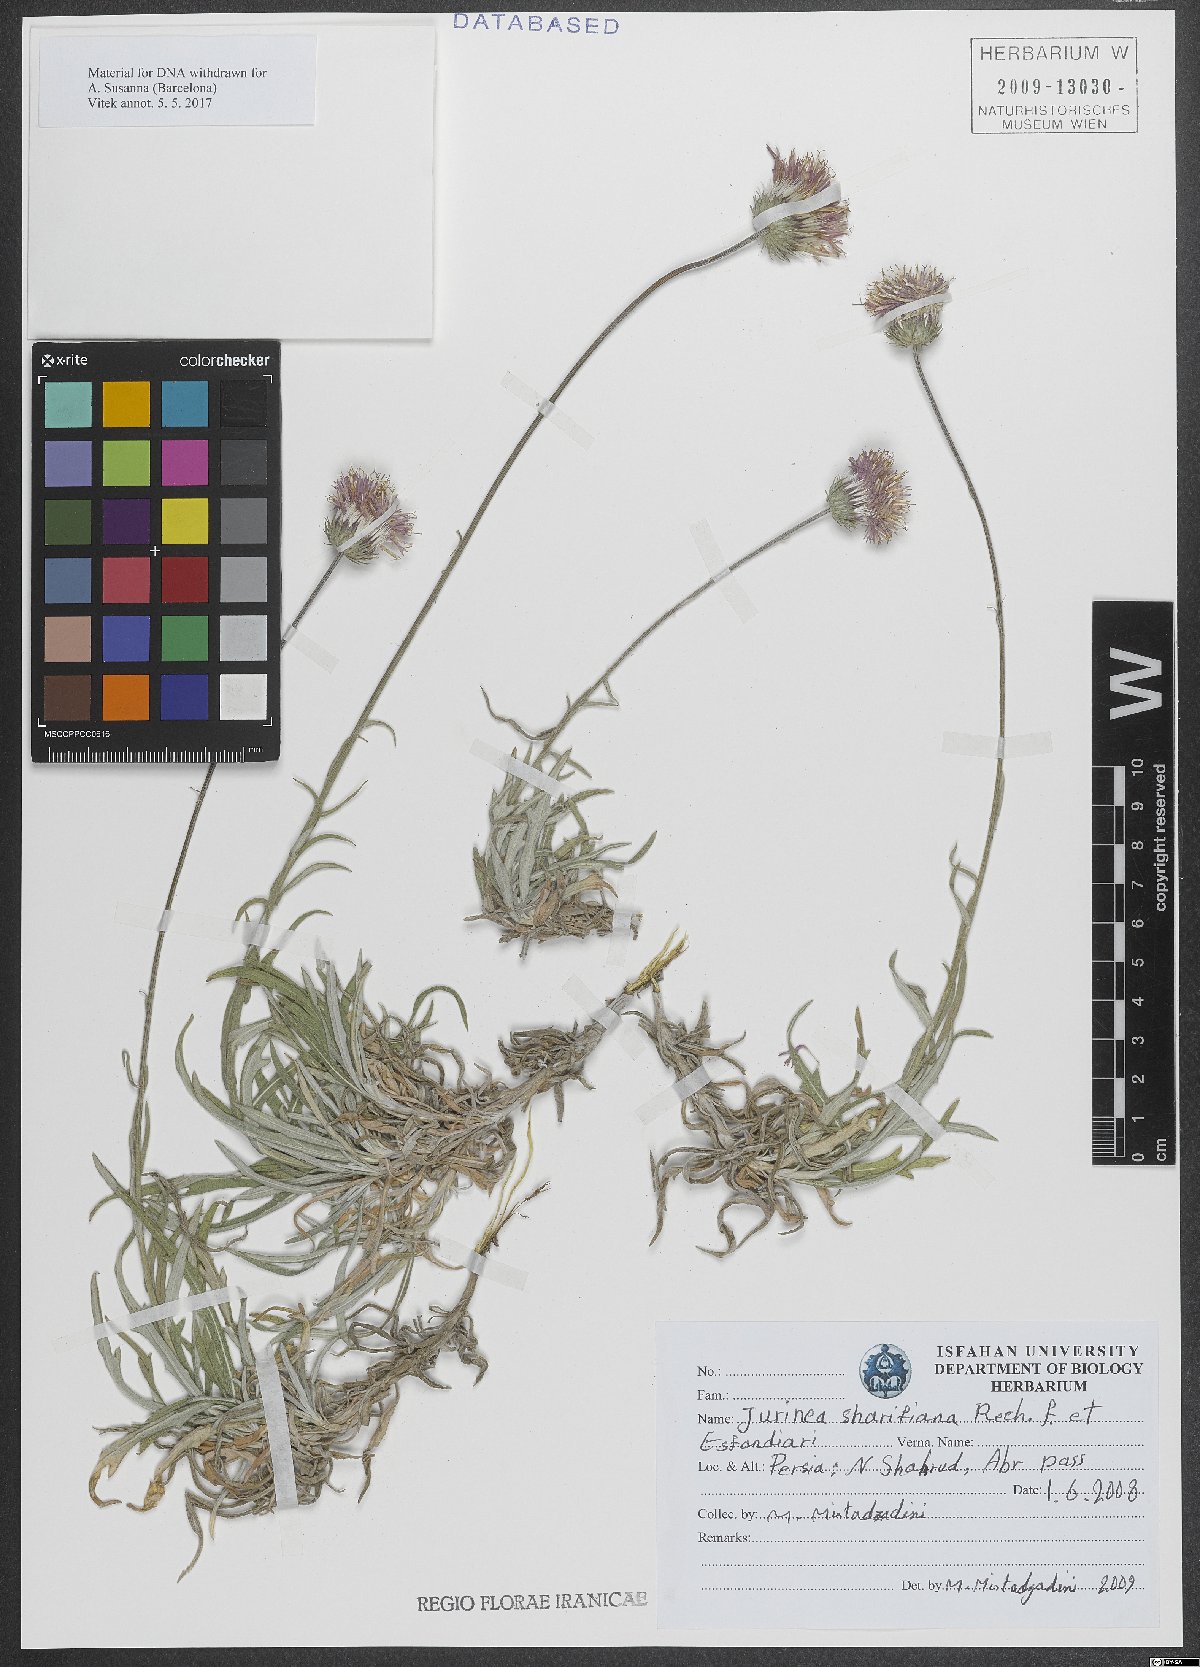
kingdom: Plantae
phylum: Tracheophyta
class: Magnoliopsida
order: Asterales
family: Asteraceae
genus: Jurinea
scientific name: Jurinea sharifiana
